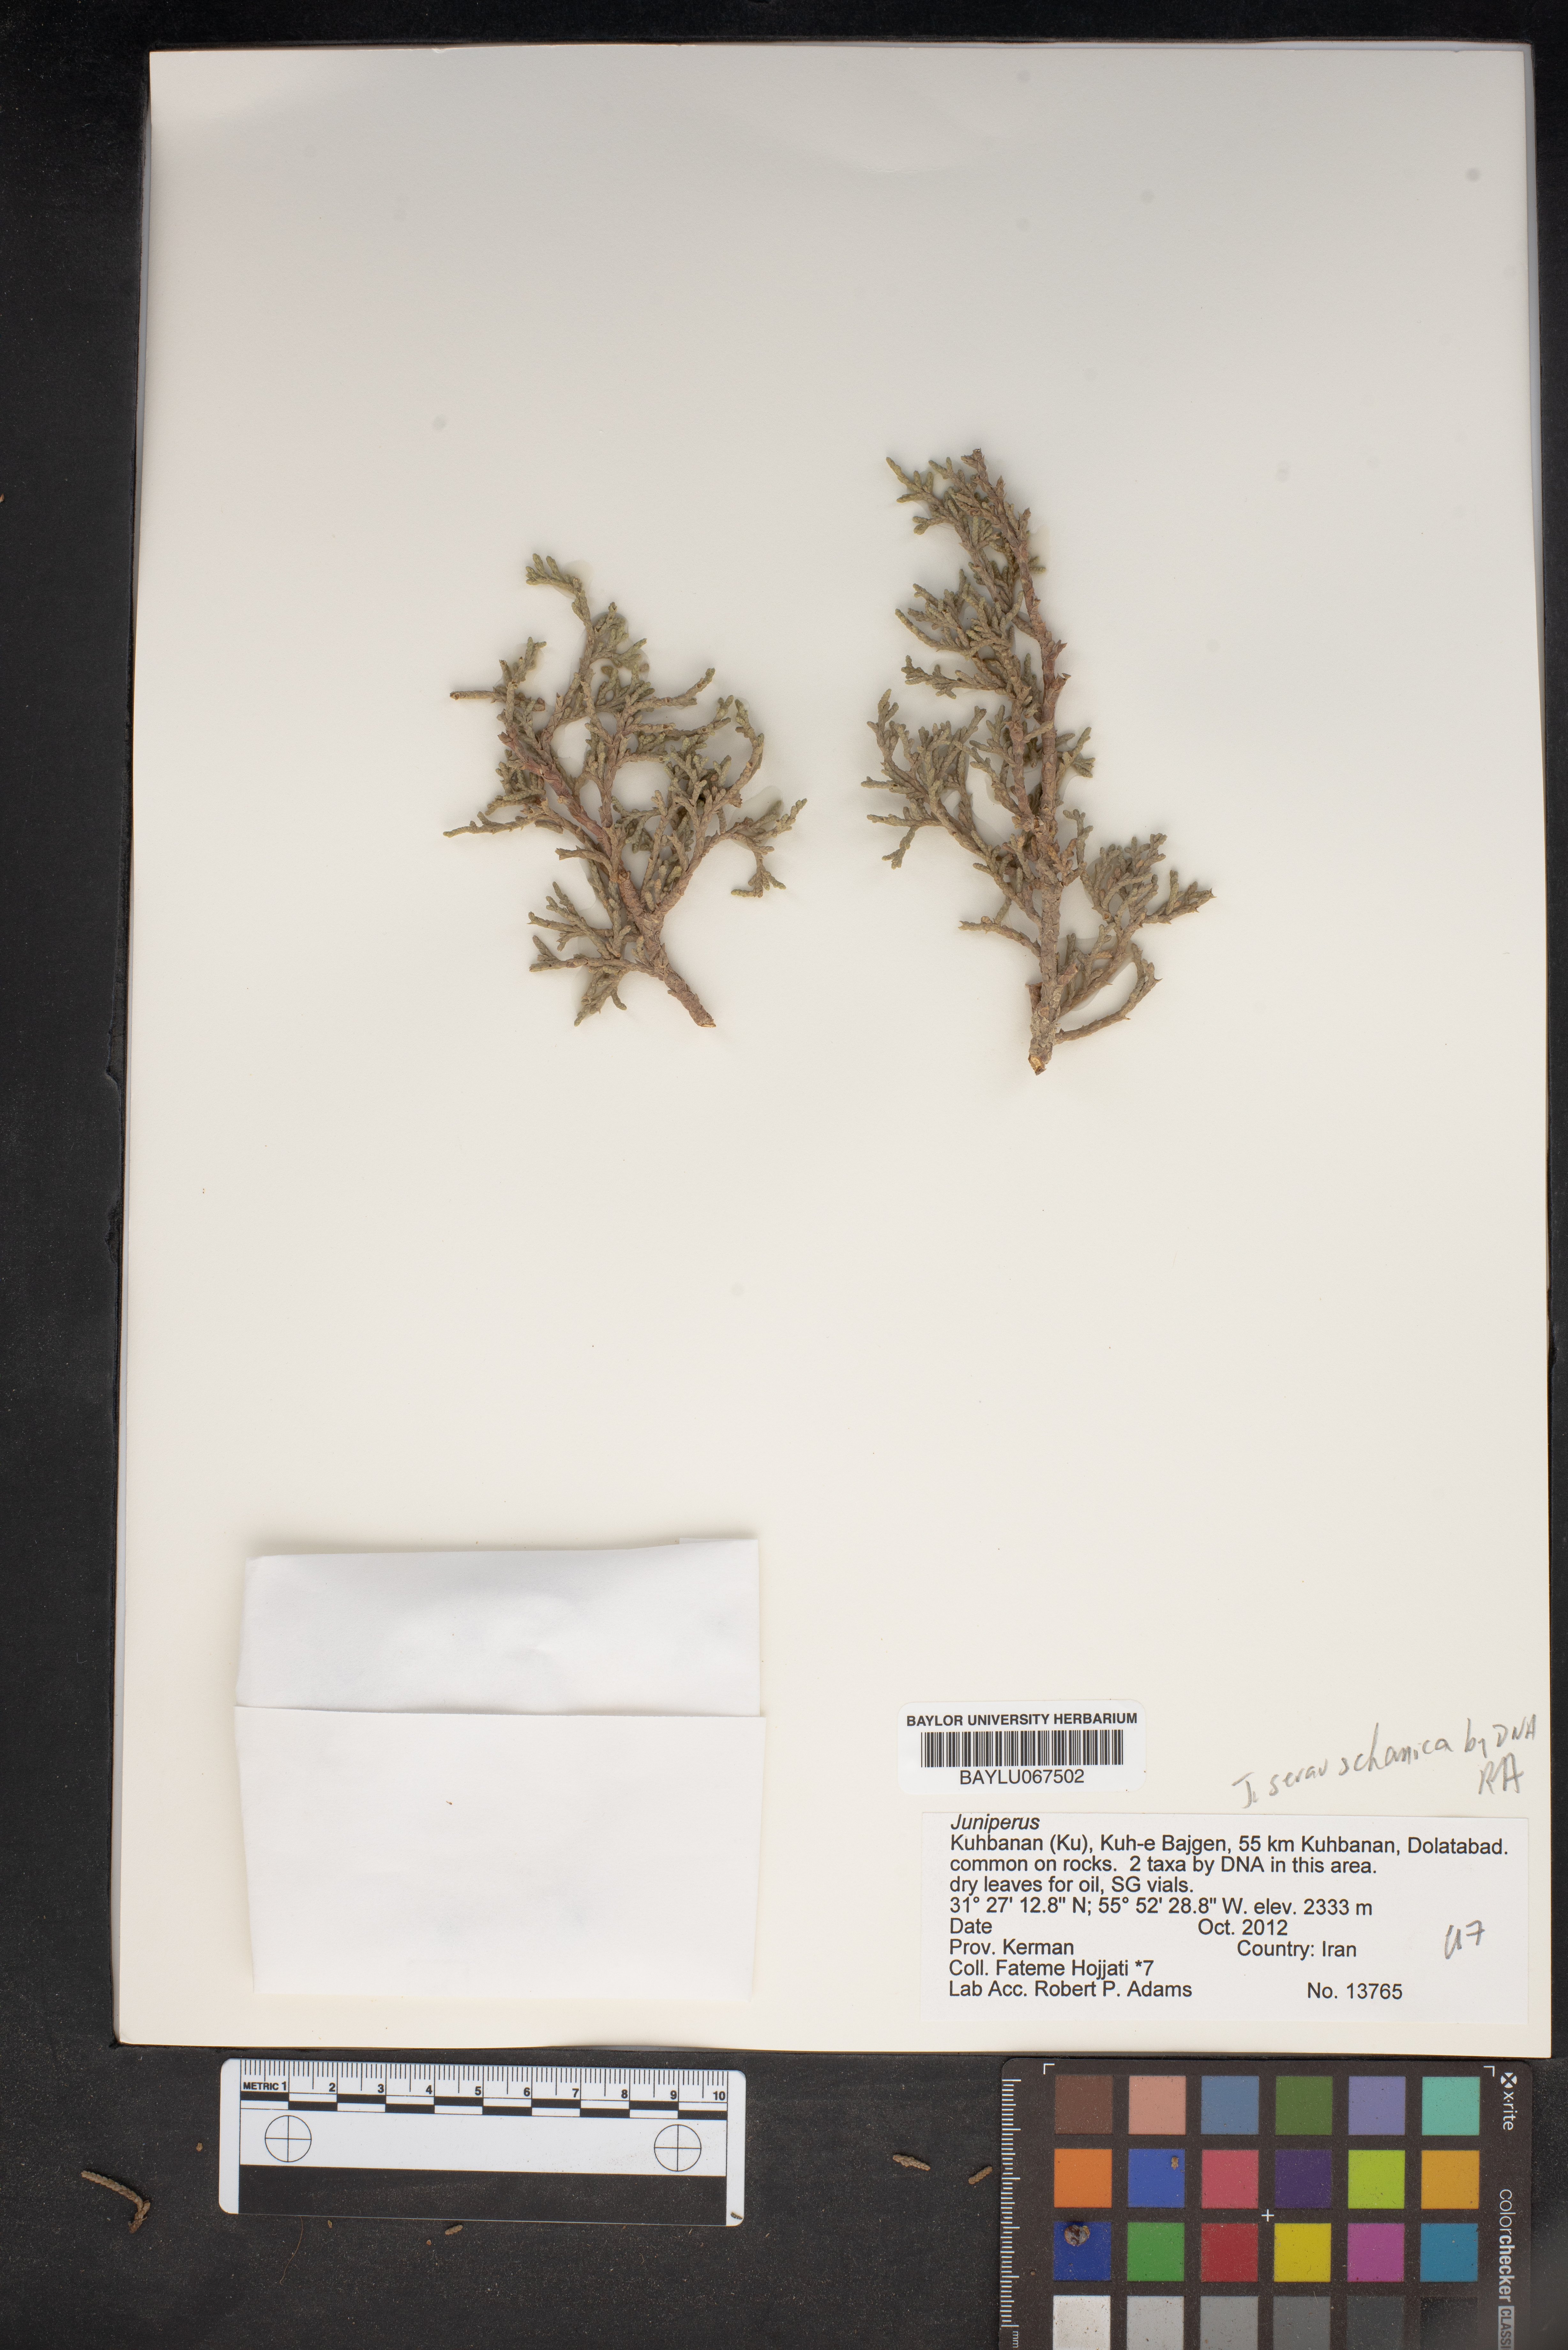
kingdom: Plantae
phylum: Tracheophyta
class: Pinopsida
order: Pinales
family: Cupressaceae
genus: Juniperus
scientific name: Juniperus
